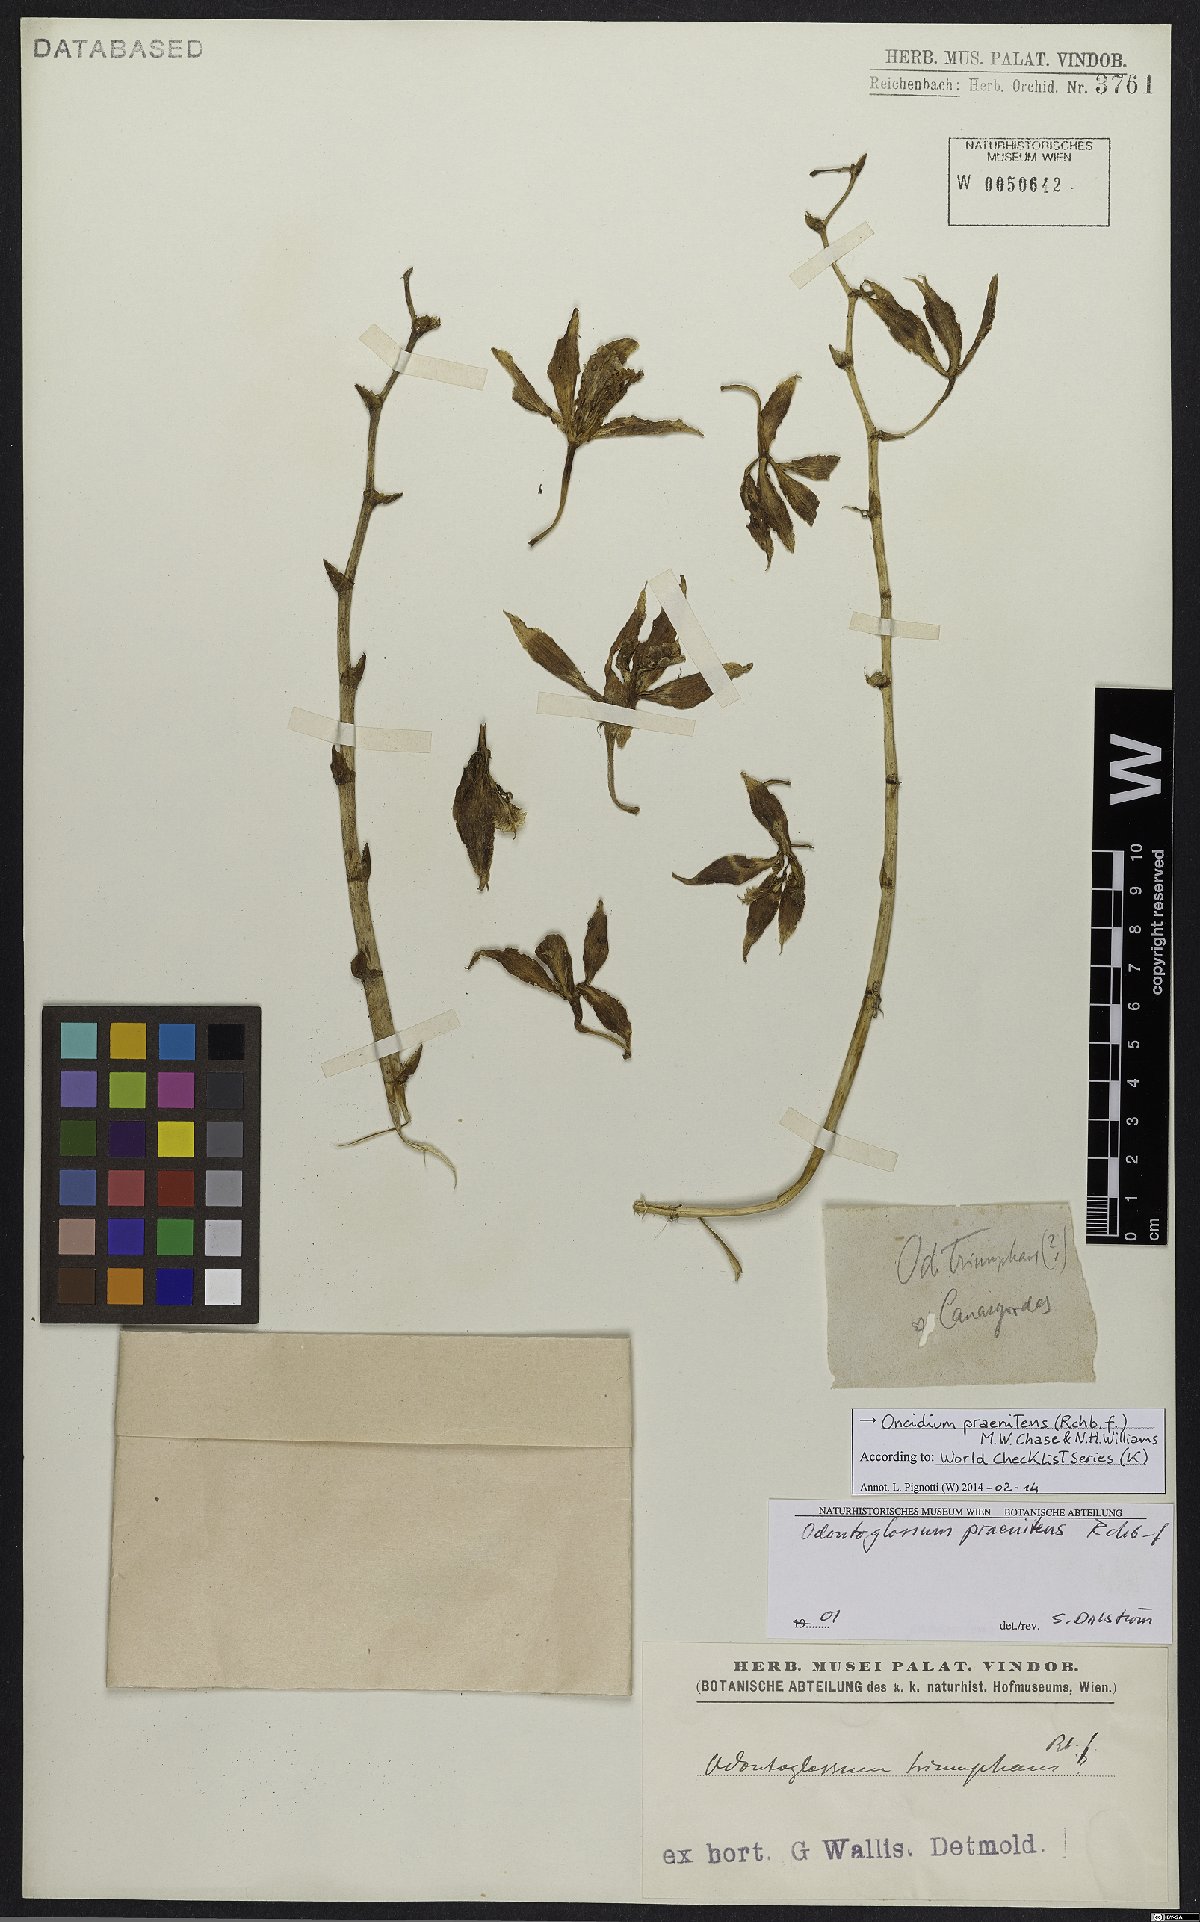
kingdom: Plantae
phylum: Tracheophyta
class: Liliopsida
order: Asparagales
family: Orchidaceae
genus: Oncidium
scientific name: Oncidium praenitens
